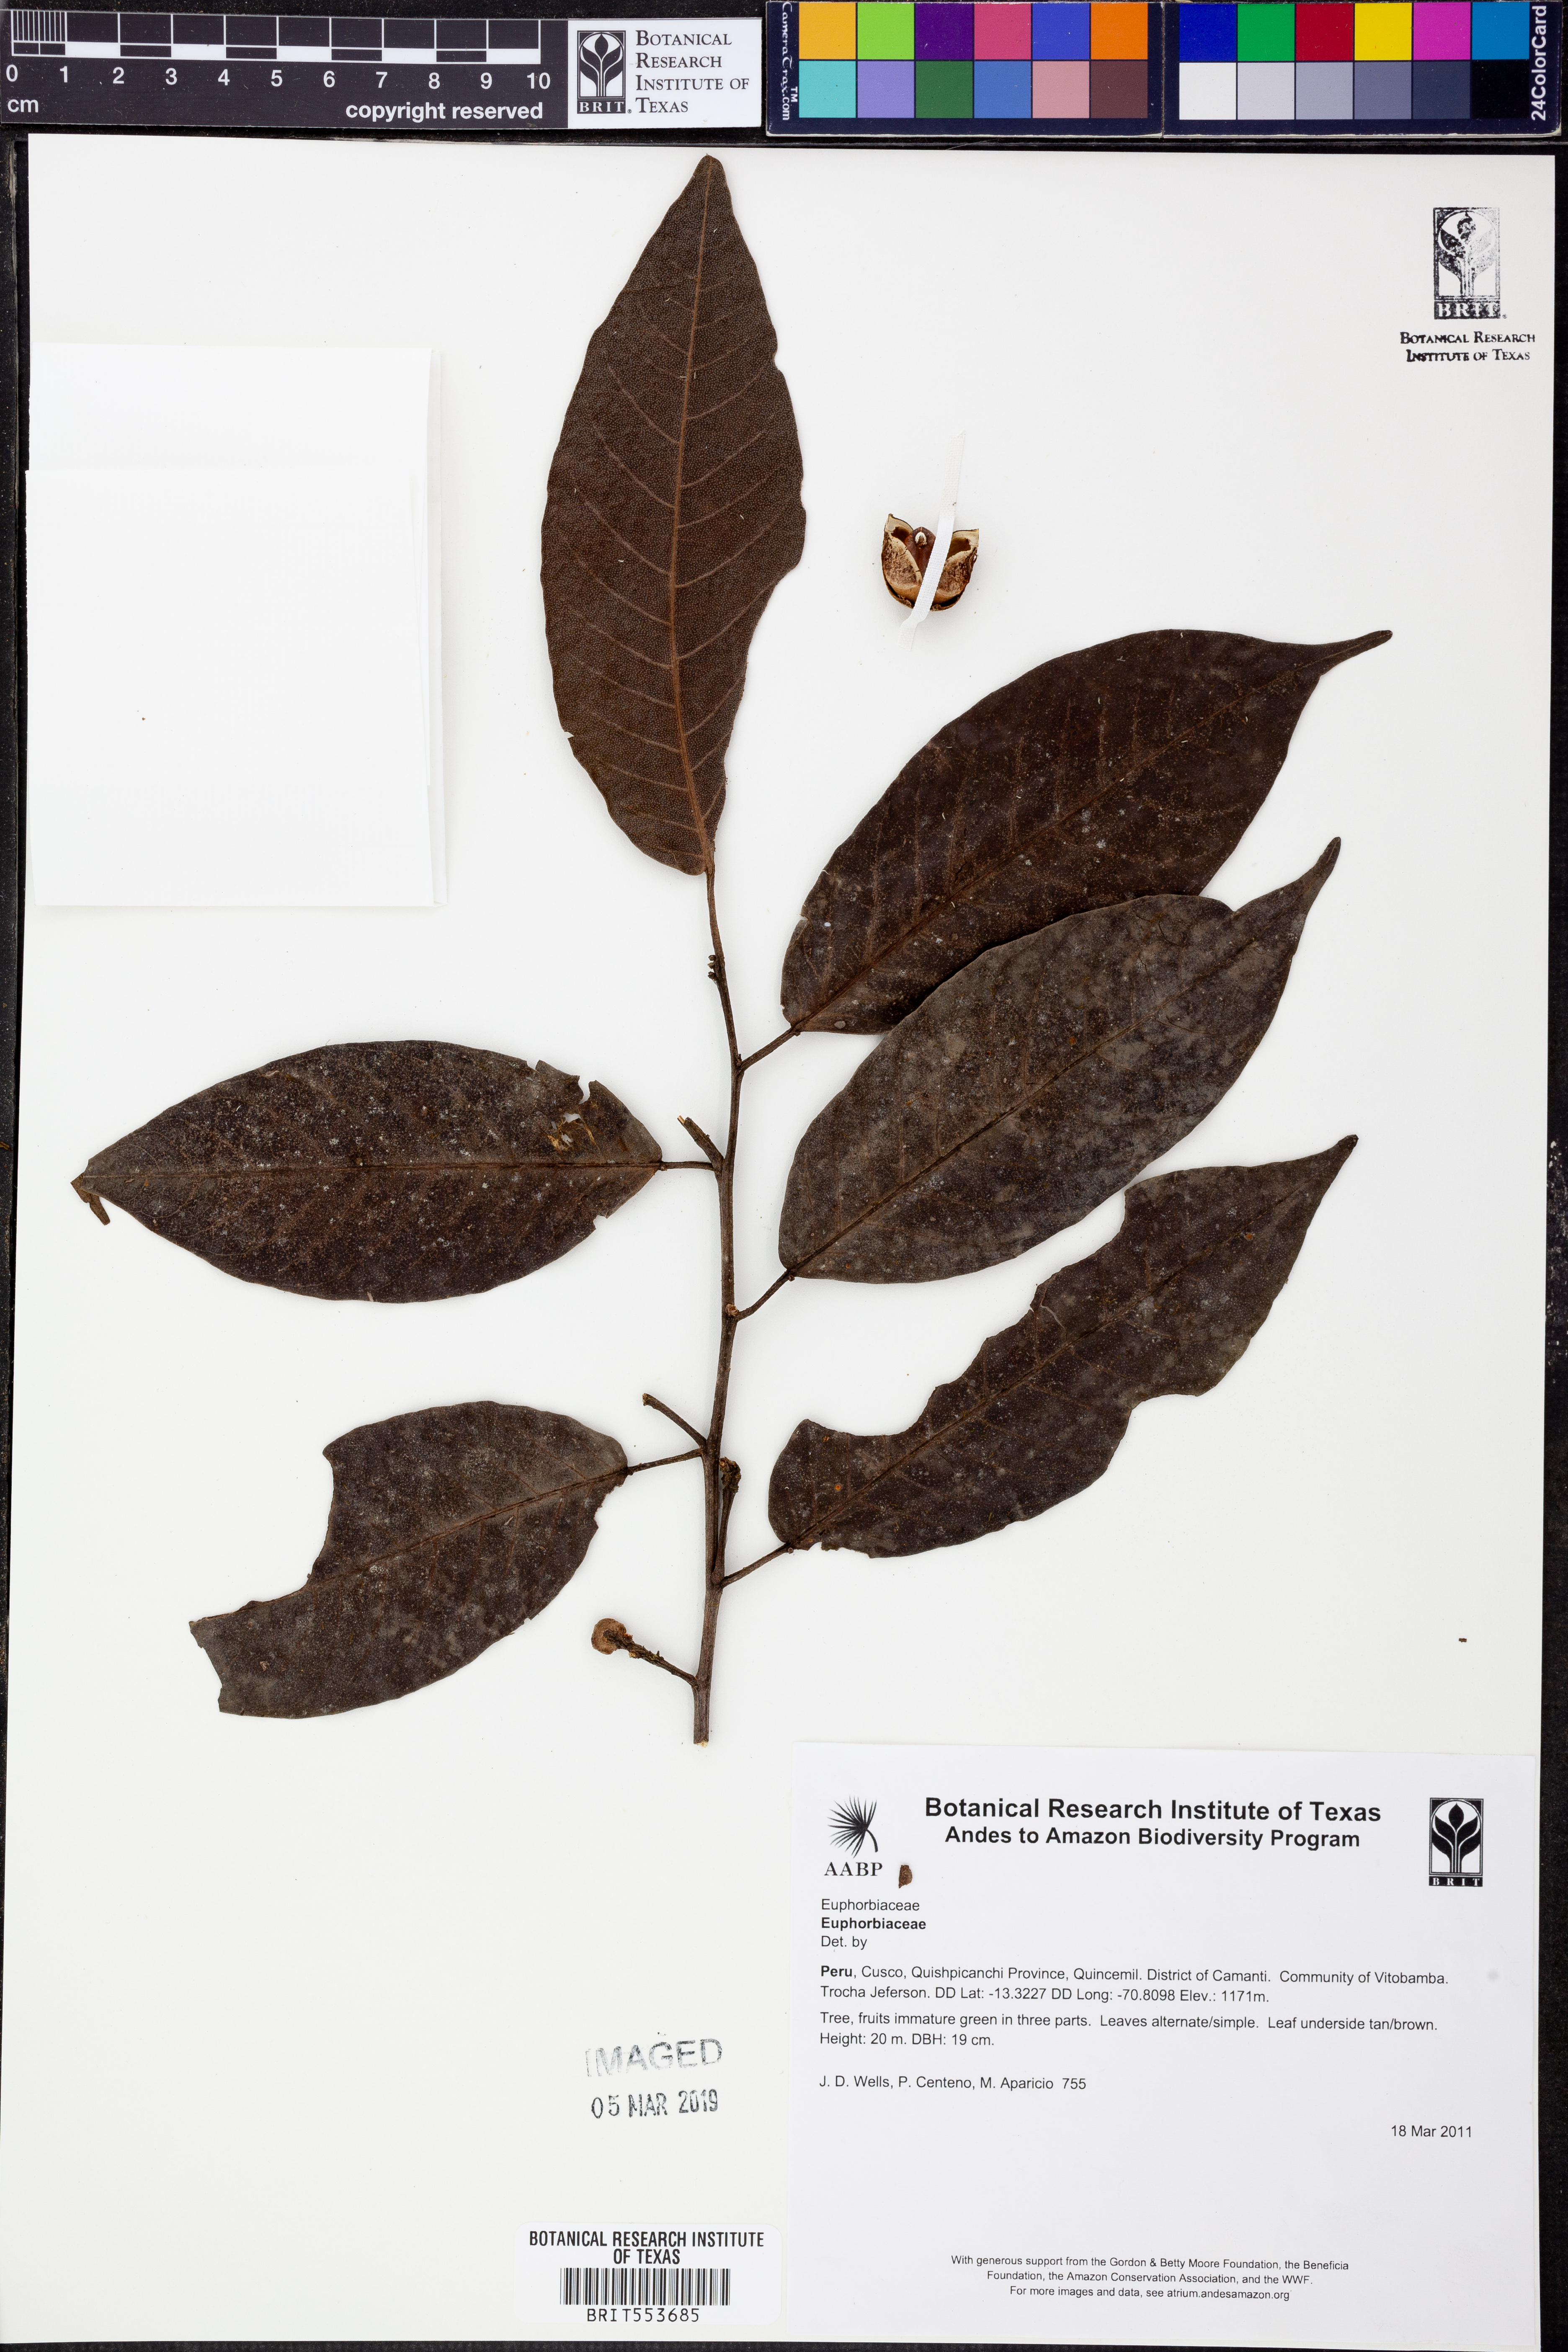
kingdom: Plantae
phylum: Tracheophyta
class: Magnoliopsida
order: Malpighiales
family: Euphorbiaceae
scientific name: Euphorbiaceae
